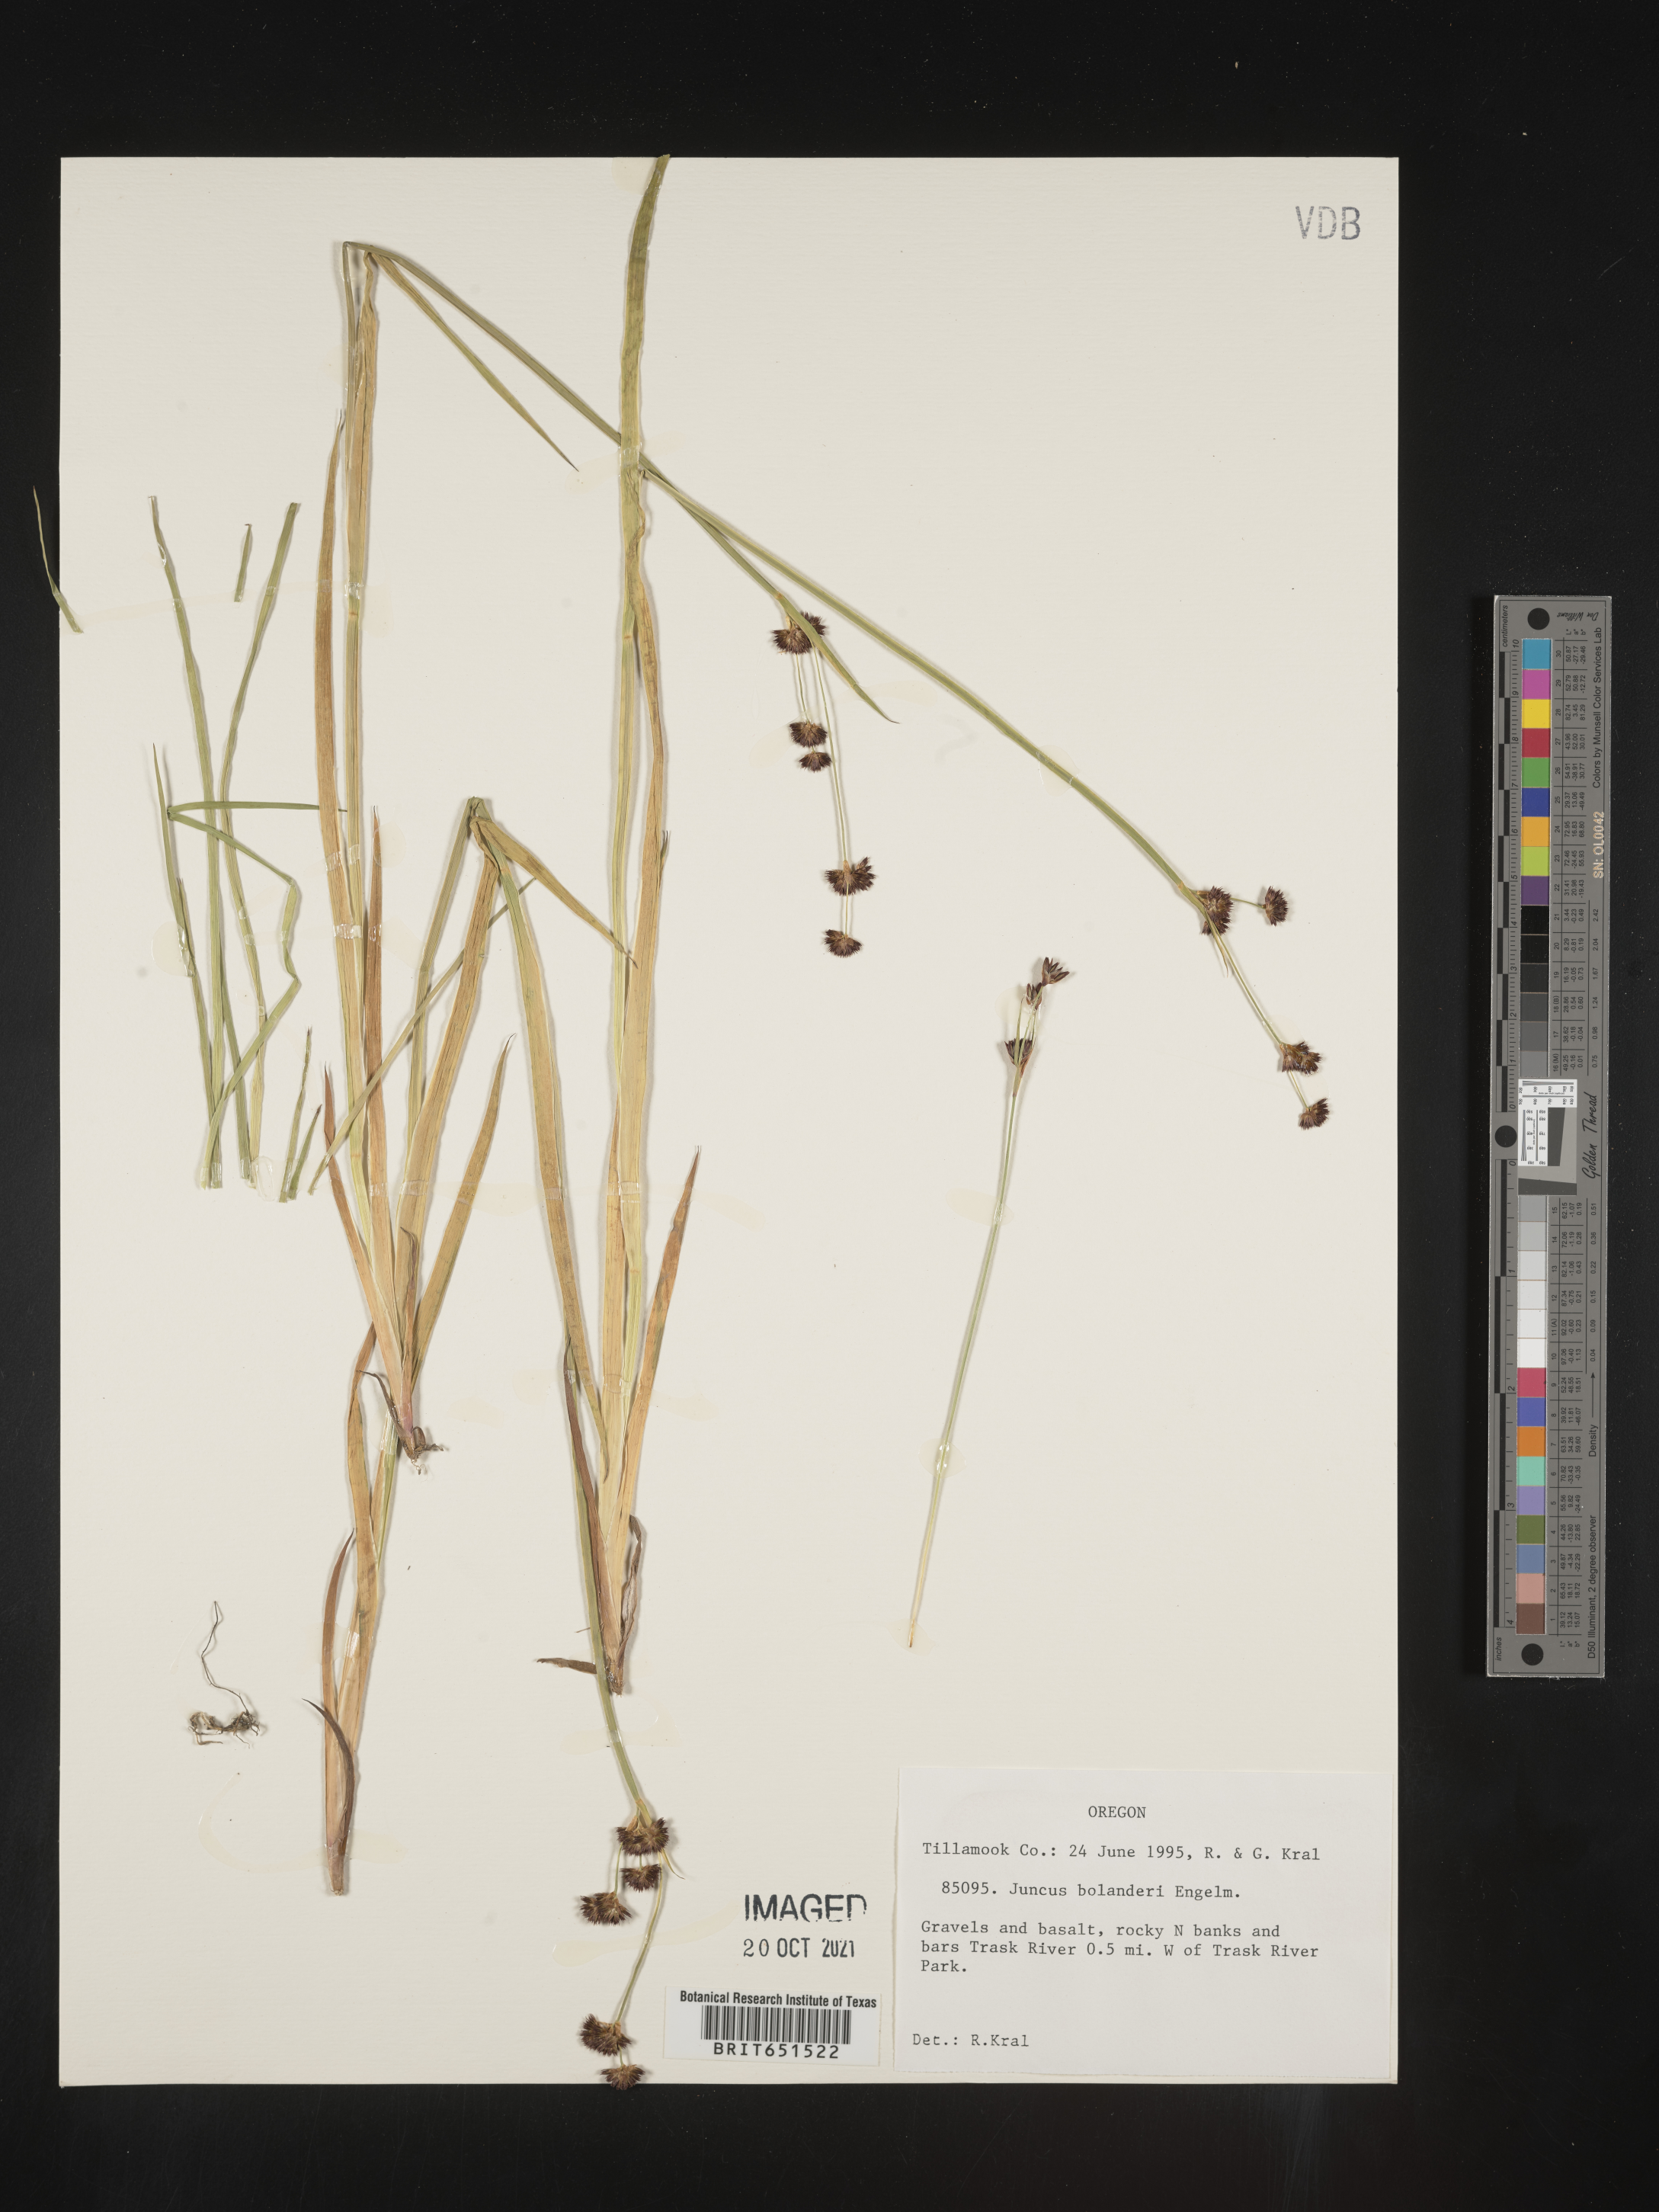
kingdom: Plantae
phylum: Tracheophyta
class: Liliopsida
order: Poales
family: Juncaceae
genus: Juncus
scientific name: Juncus bolanderi
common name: Bolander's rush
